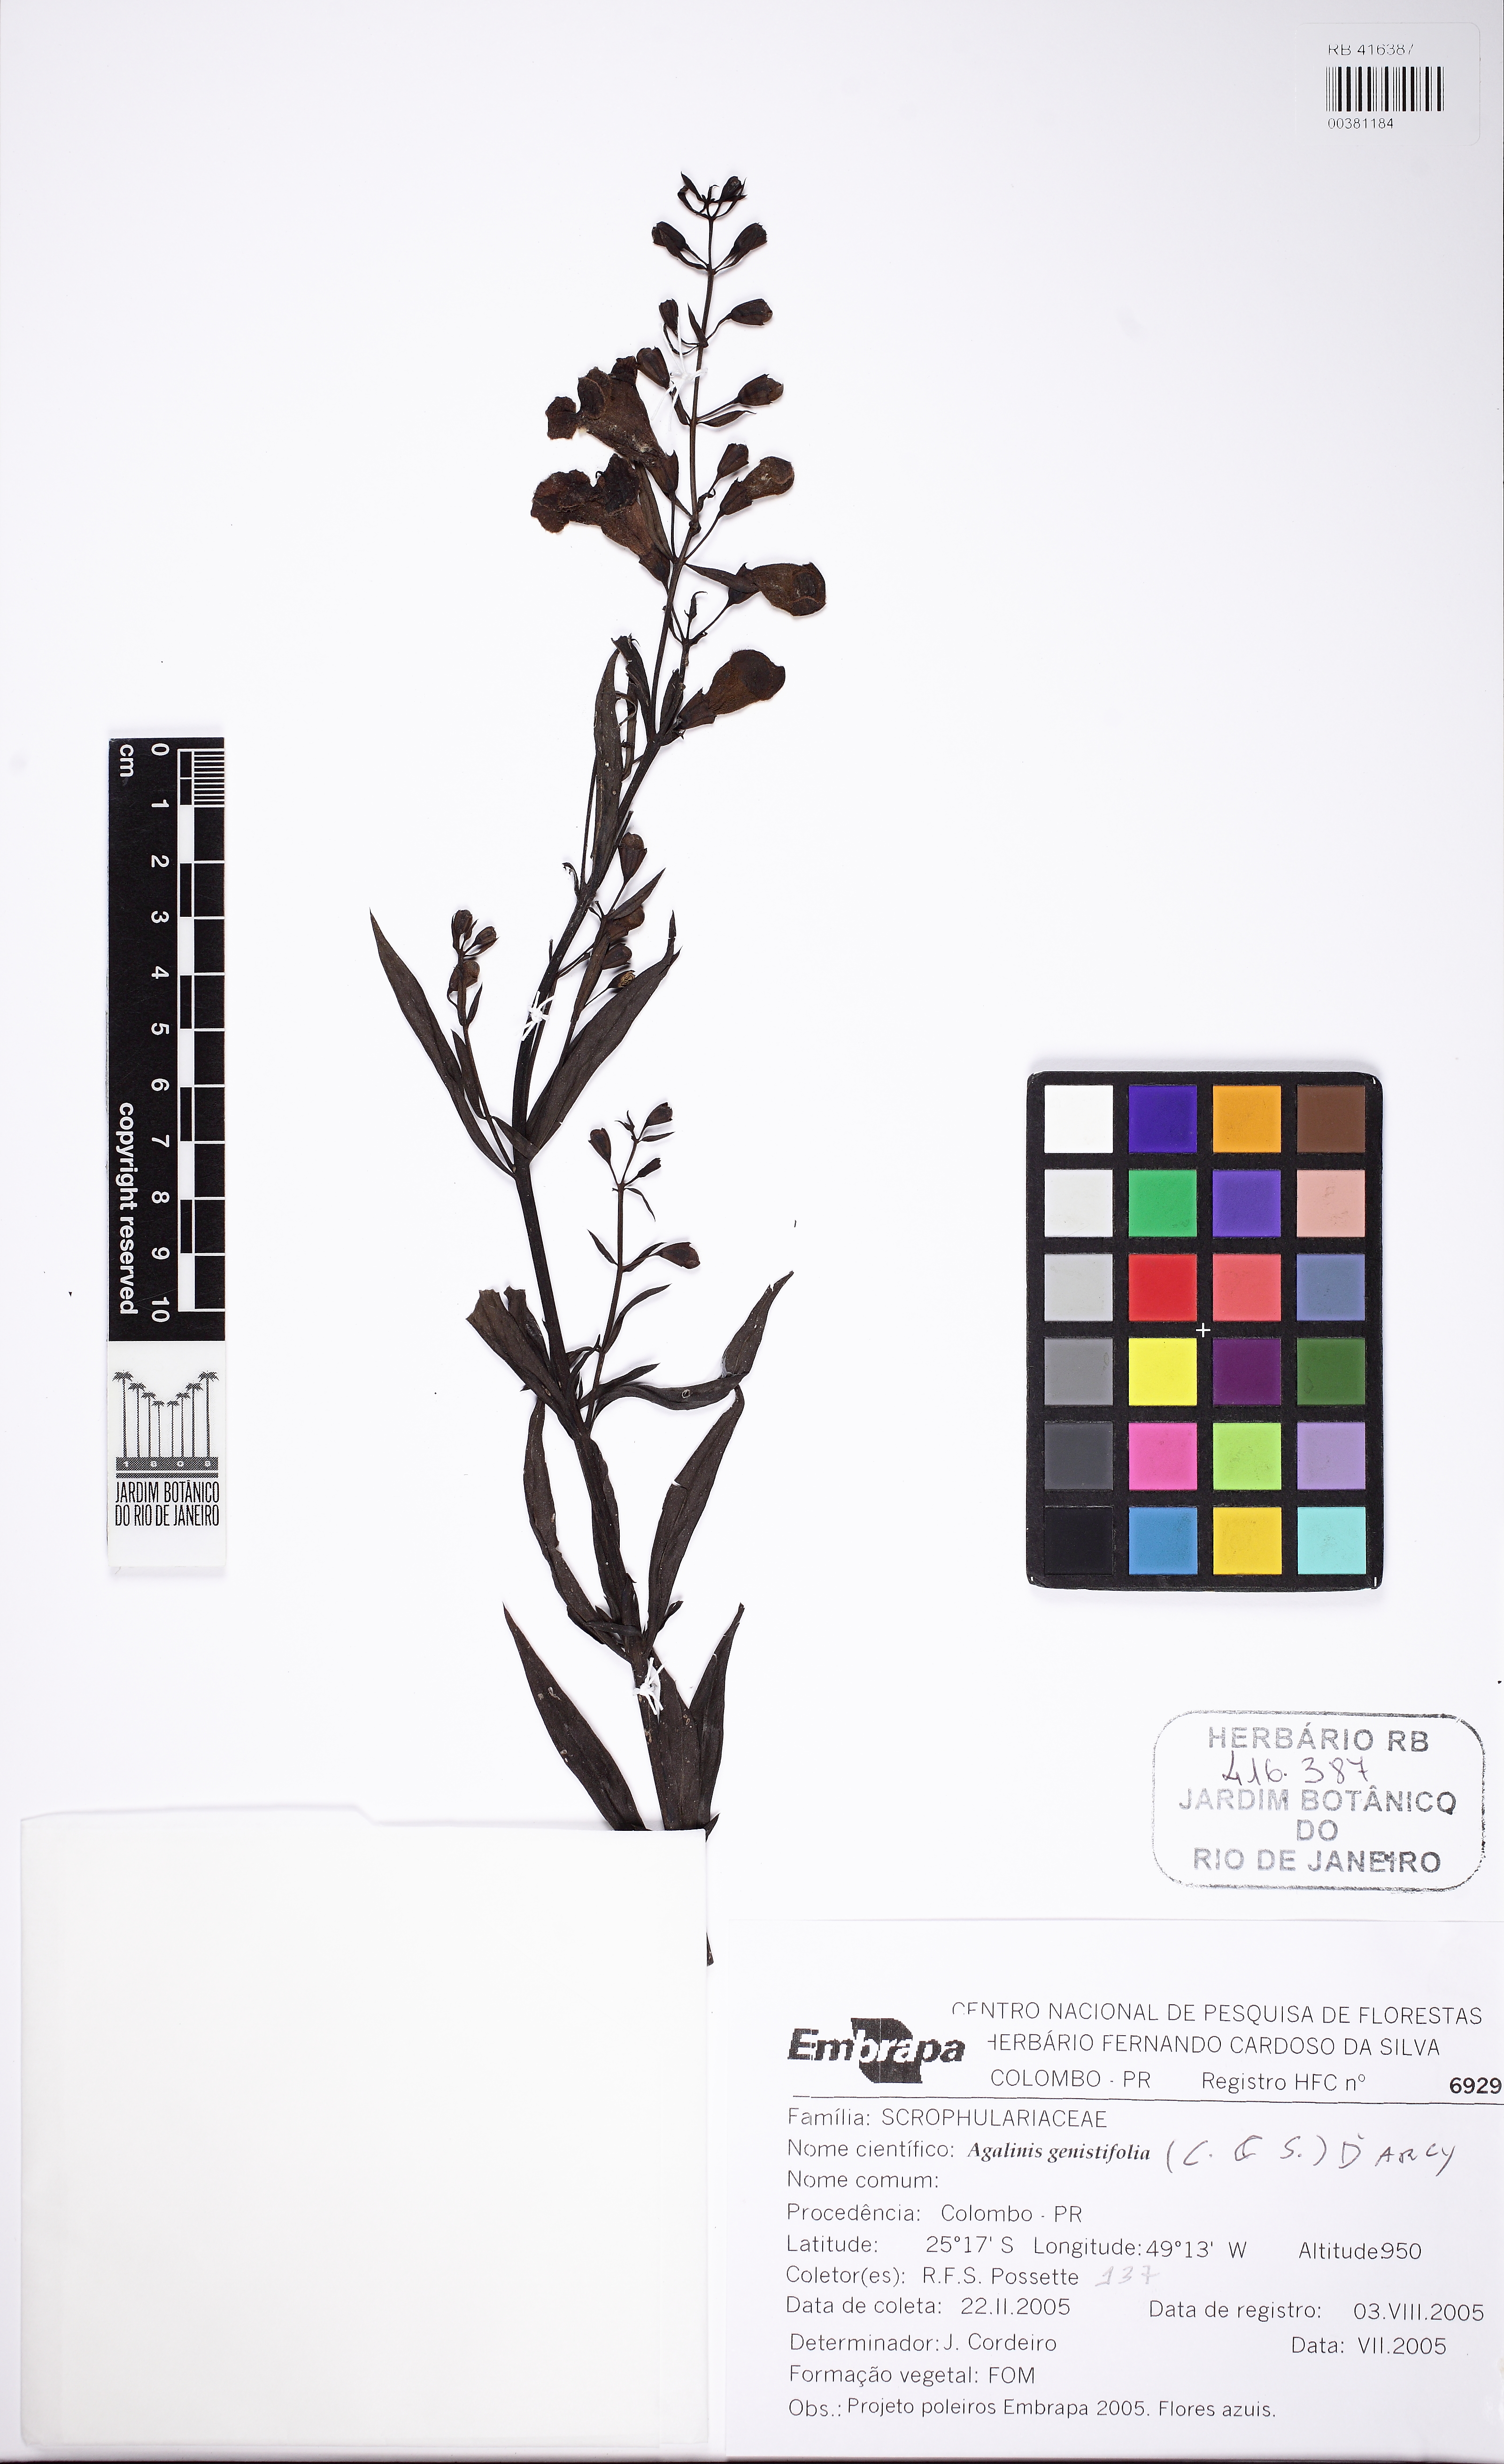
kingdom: Plantae
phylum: Tracheophyta
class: Magnoliopsida
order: Lamiales
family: Scrophulariaceae
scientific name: Scrophulariaceae
